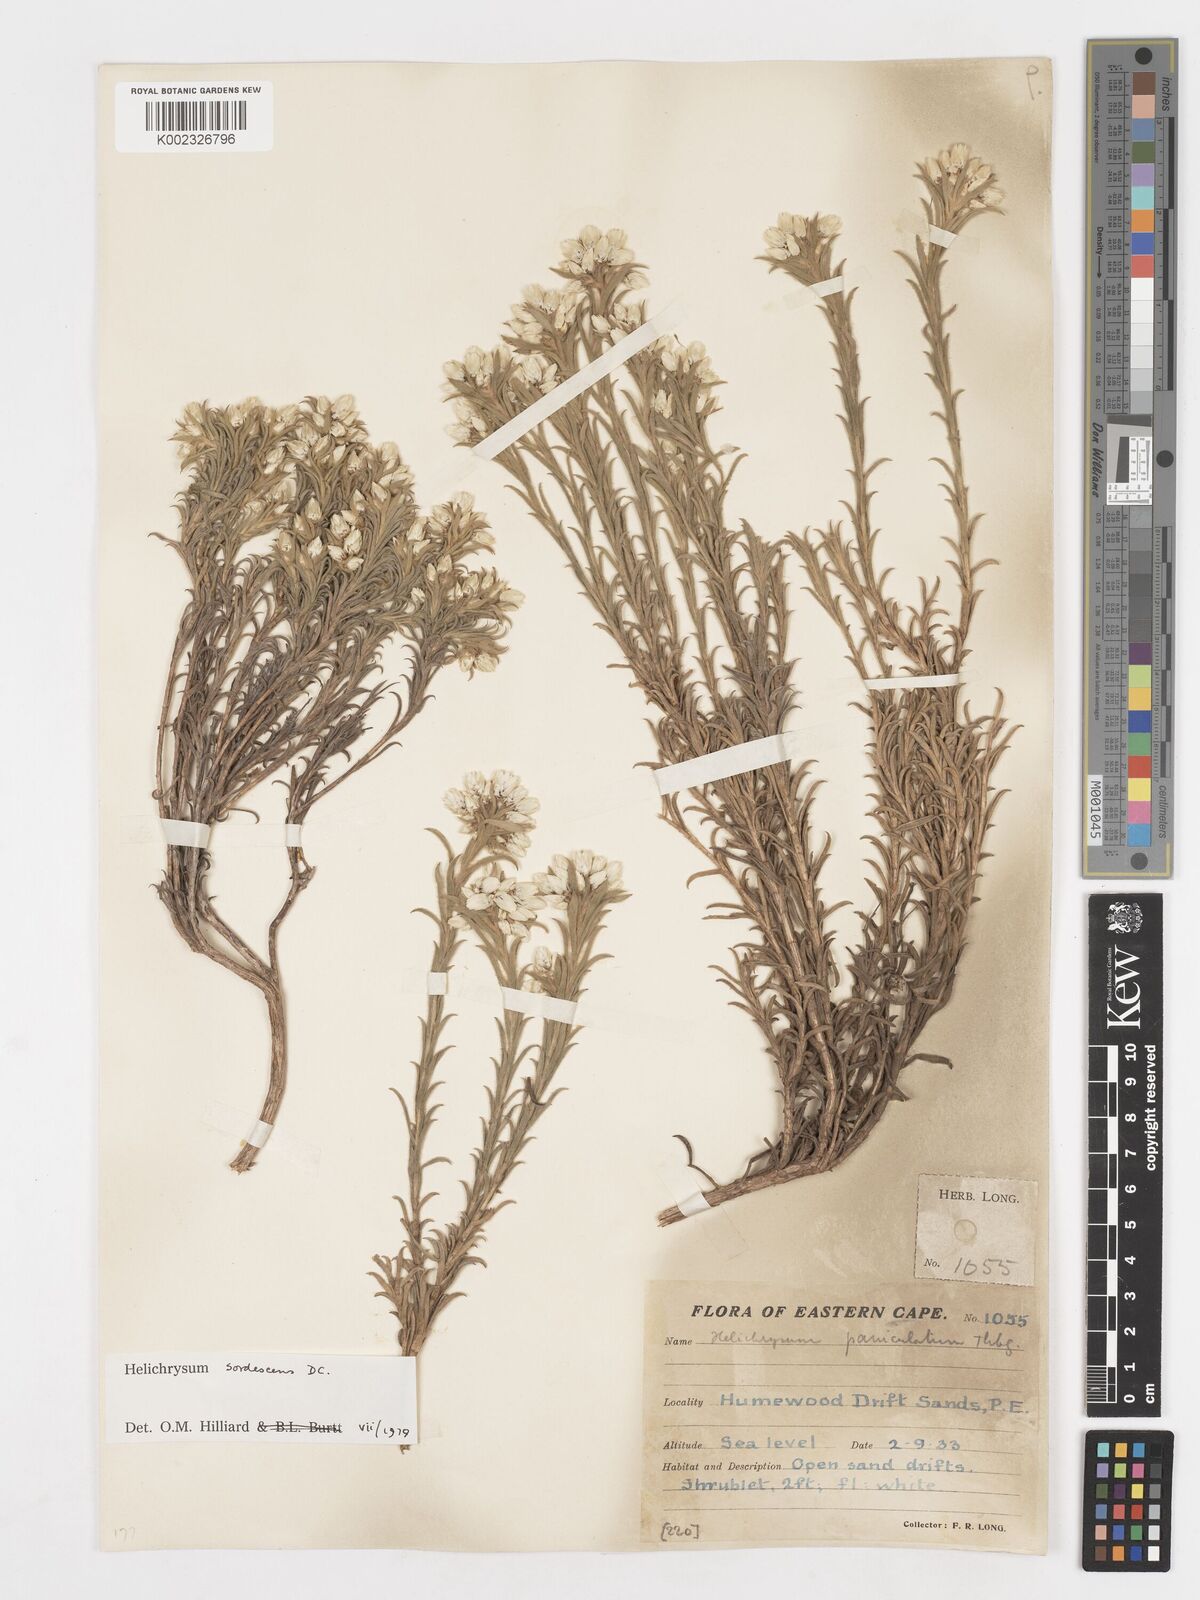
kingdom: Plantae
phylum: Tracheophyta
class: Magnoliopsida
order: Asterales
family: Asteraceae
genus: Achyranthemum
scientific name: Achyranthemum sordescens
